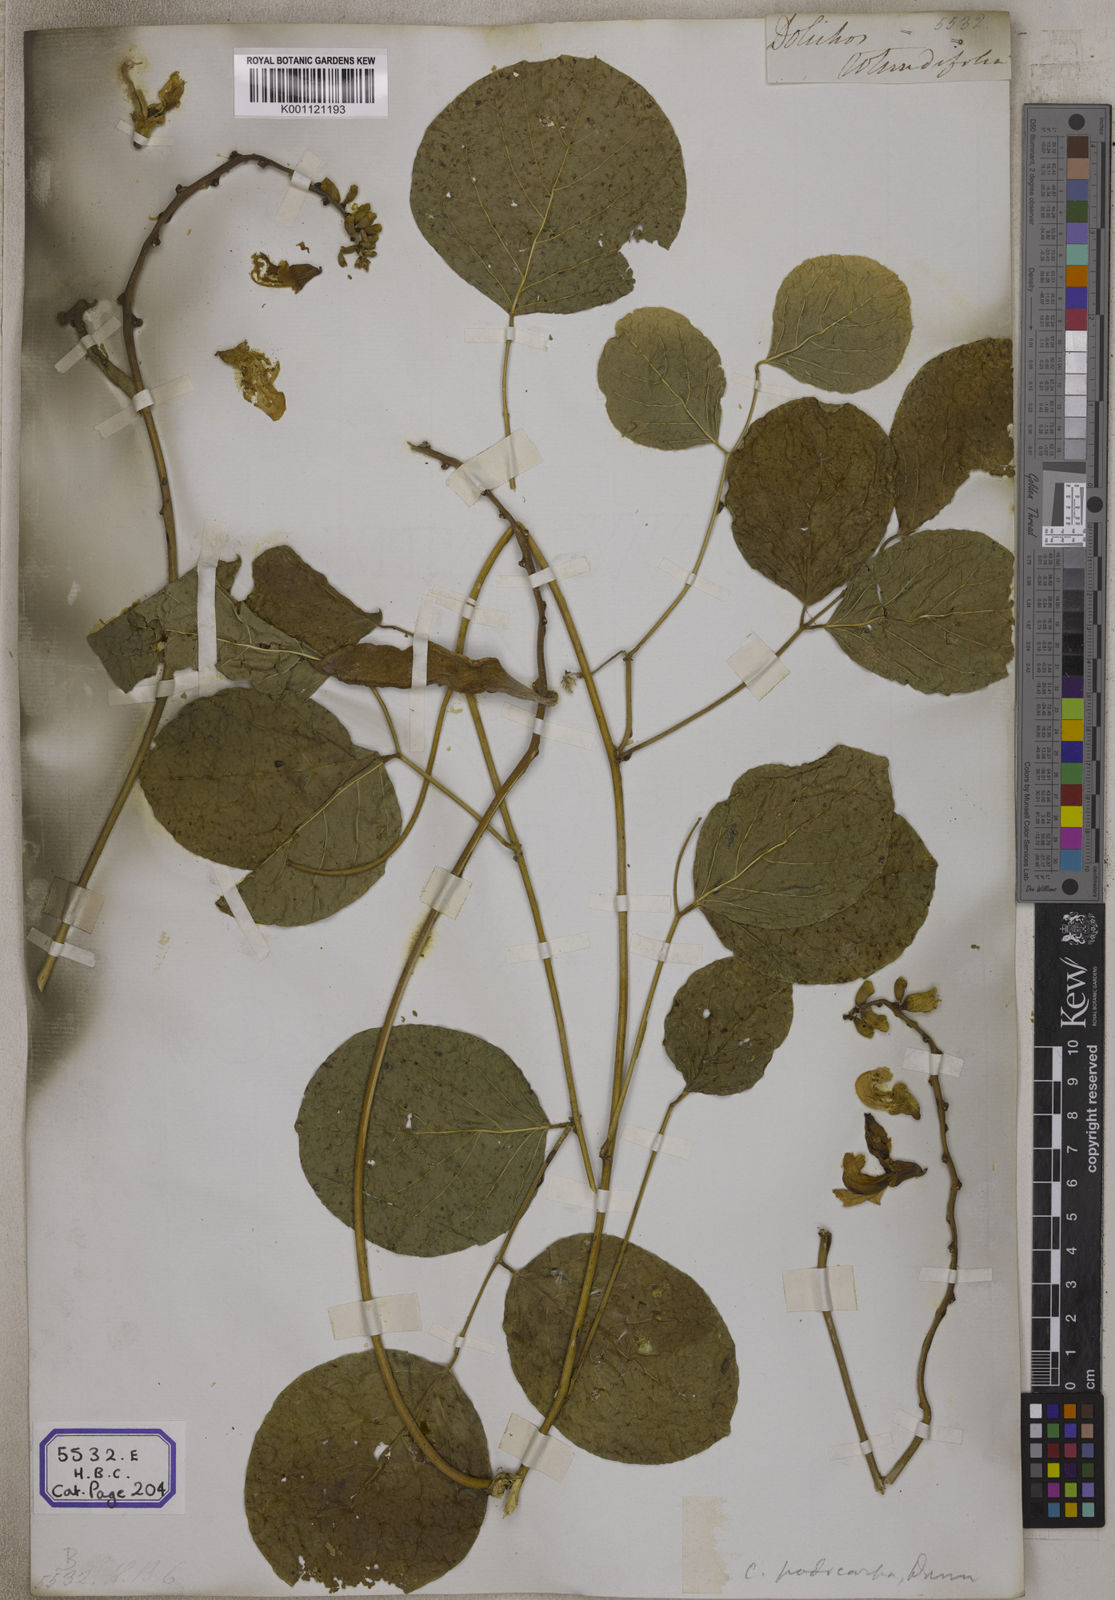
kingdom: Plantae
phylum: Tracheophyta
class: Magnoliopsida
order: Fabales
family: Fabaceae
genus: Canavalia
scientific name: Canavalia rosea
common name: Beach-bean
